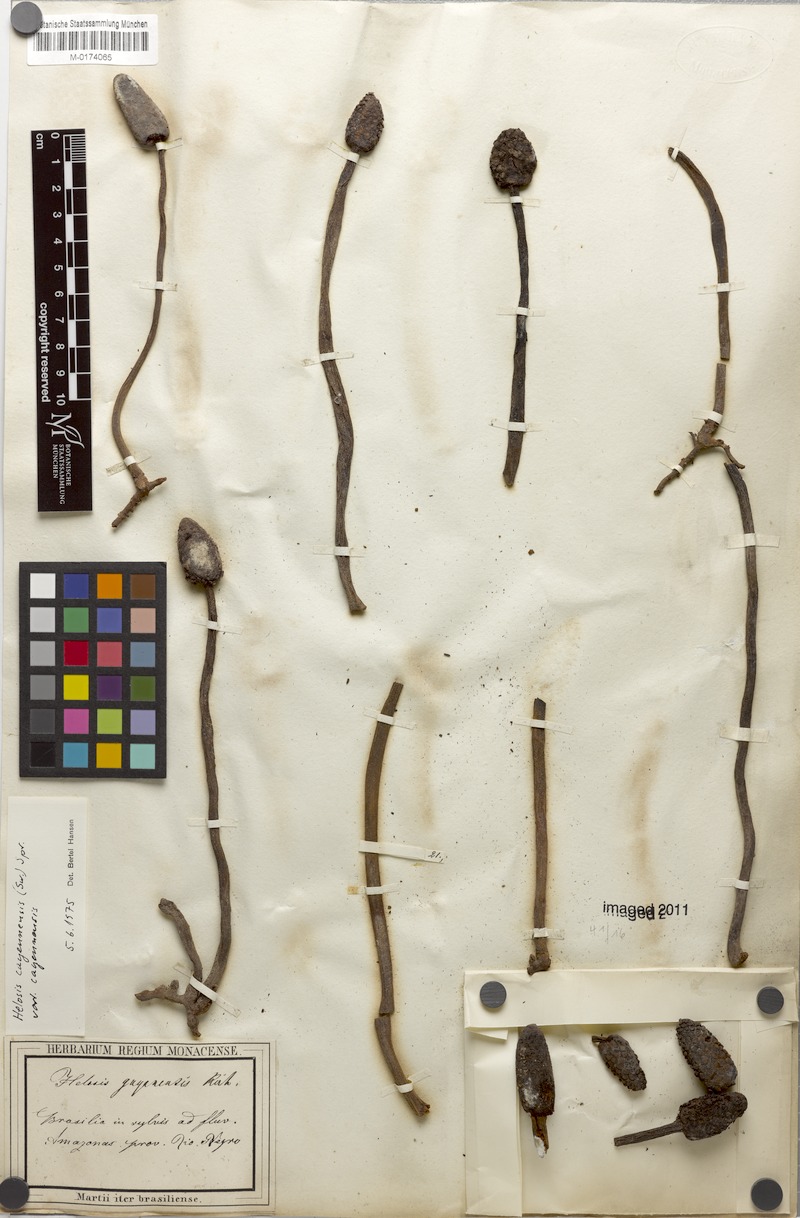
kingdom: Plantae
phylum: Tracheophyta
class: Magnoliopsida
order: Santalales
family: Balanophoraceae
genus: Helosis
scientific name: Helosis cayennensis
